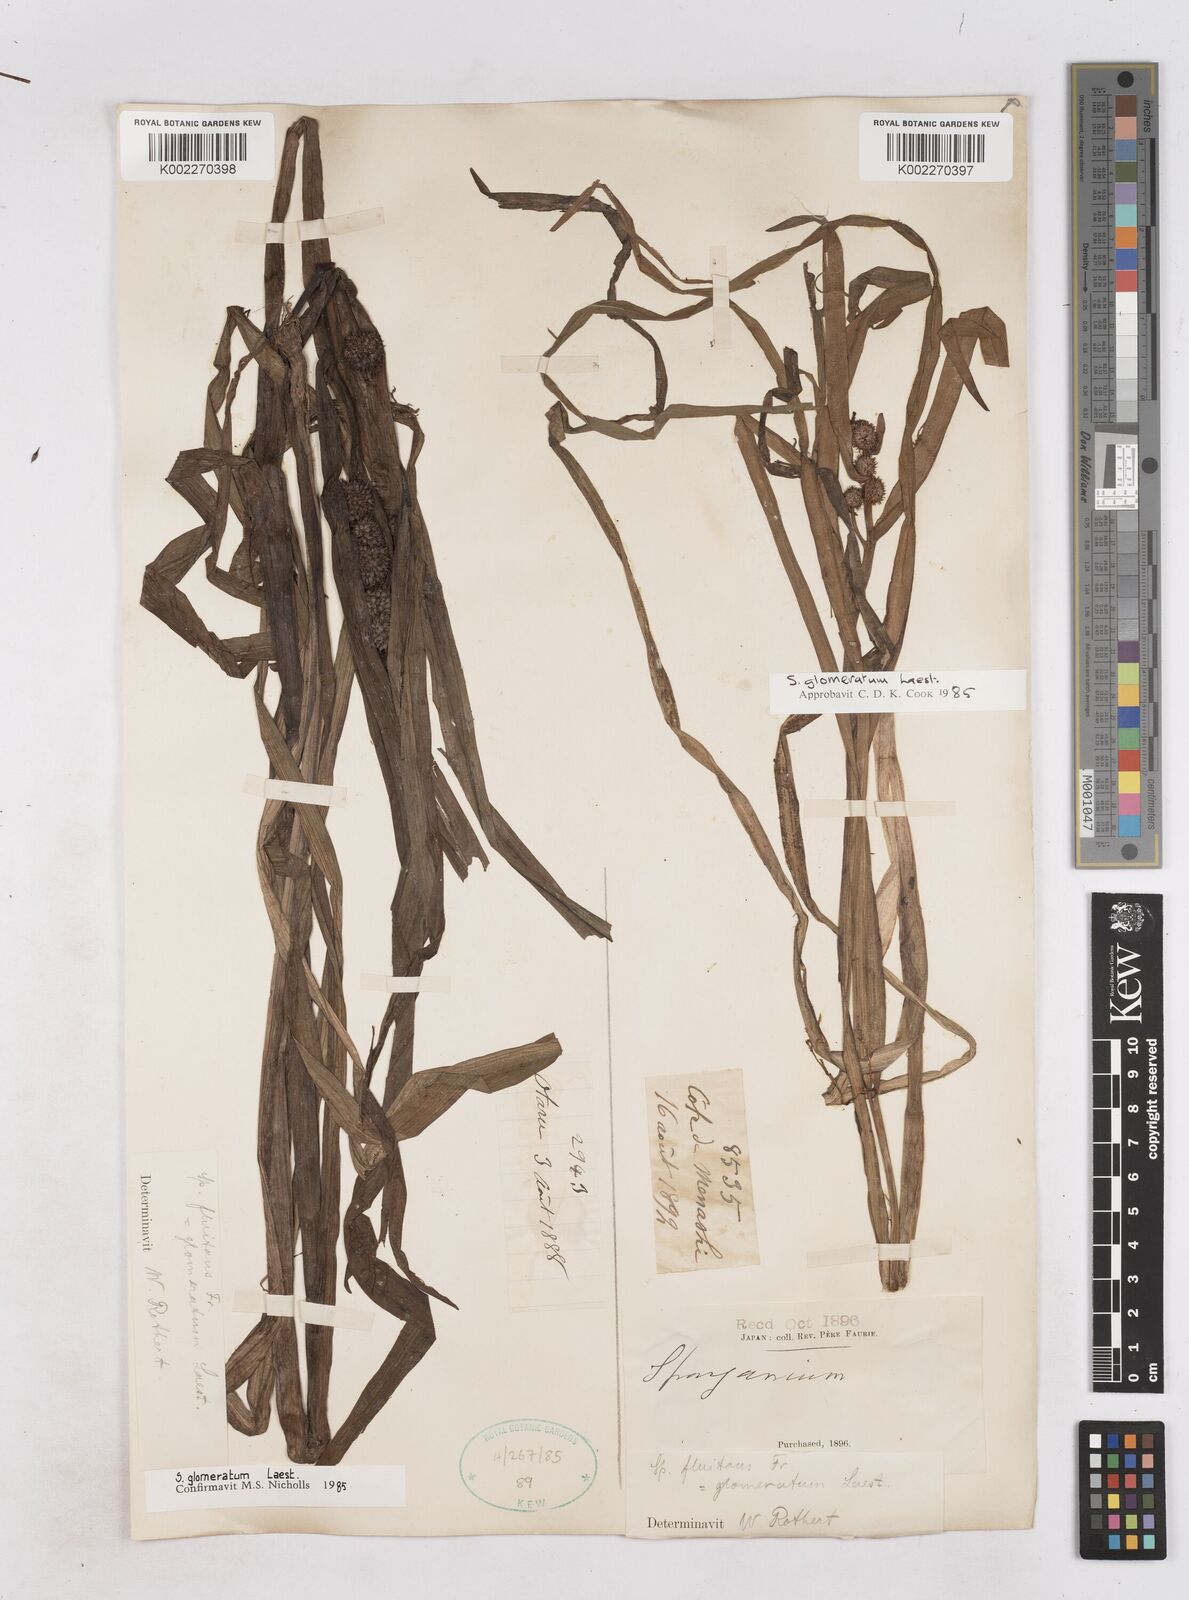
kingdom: Plantae
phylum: Tracheophyta
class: Liliopsida
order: Poales
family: Typhaceae
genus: Sparganium
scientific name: Sparganium glomeratum
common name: Clustered burreed
